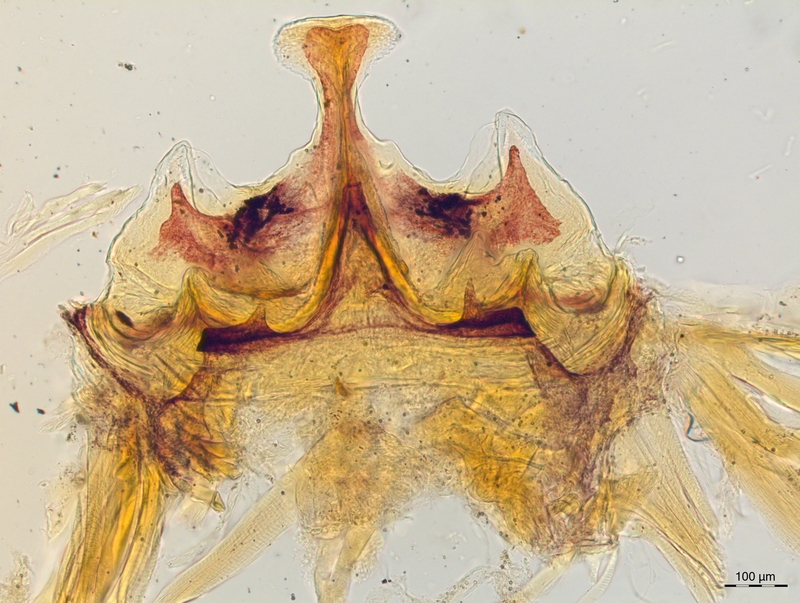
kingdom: Animalia
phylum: Arthropoda
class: Diplopoda
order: Chordeumatida
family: Craspedosomatidae
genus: Craspedosoma
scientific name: Craspedosoma slavum
